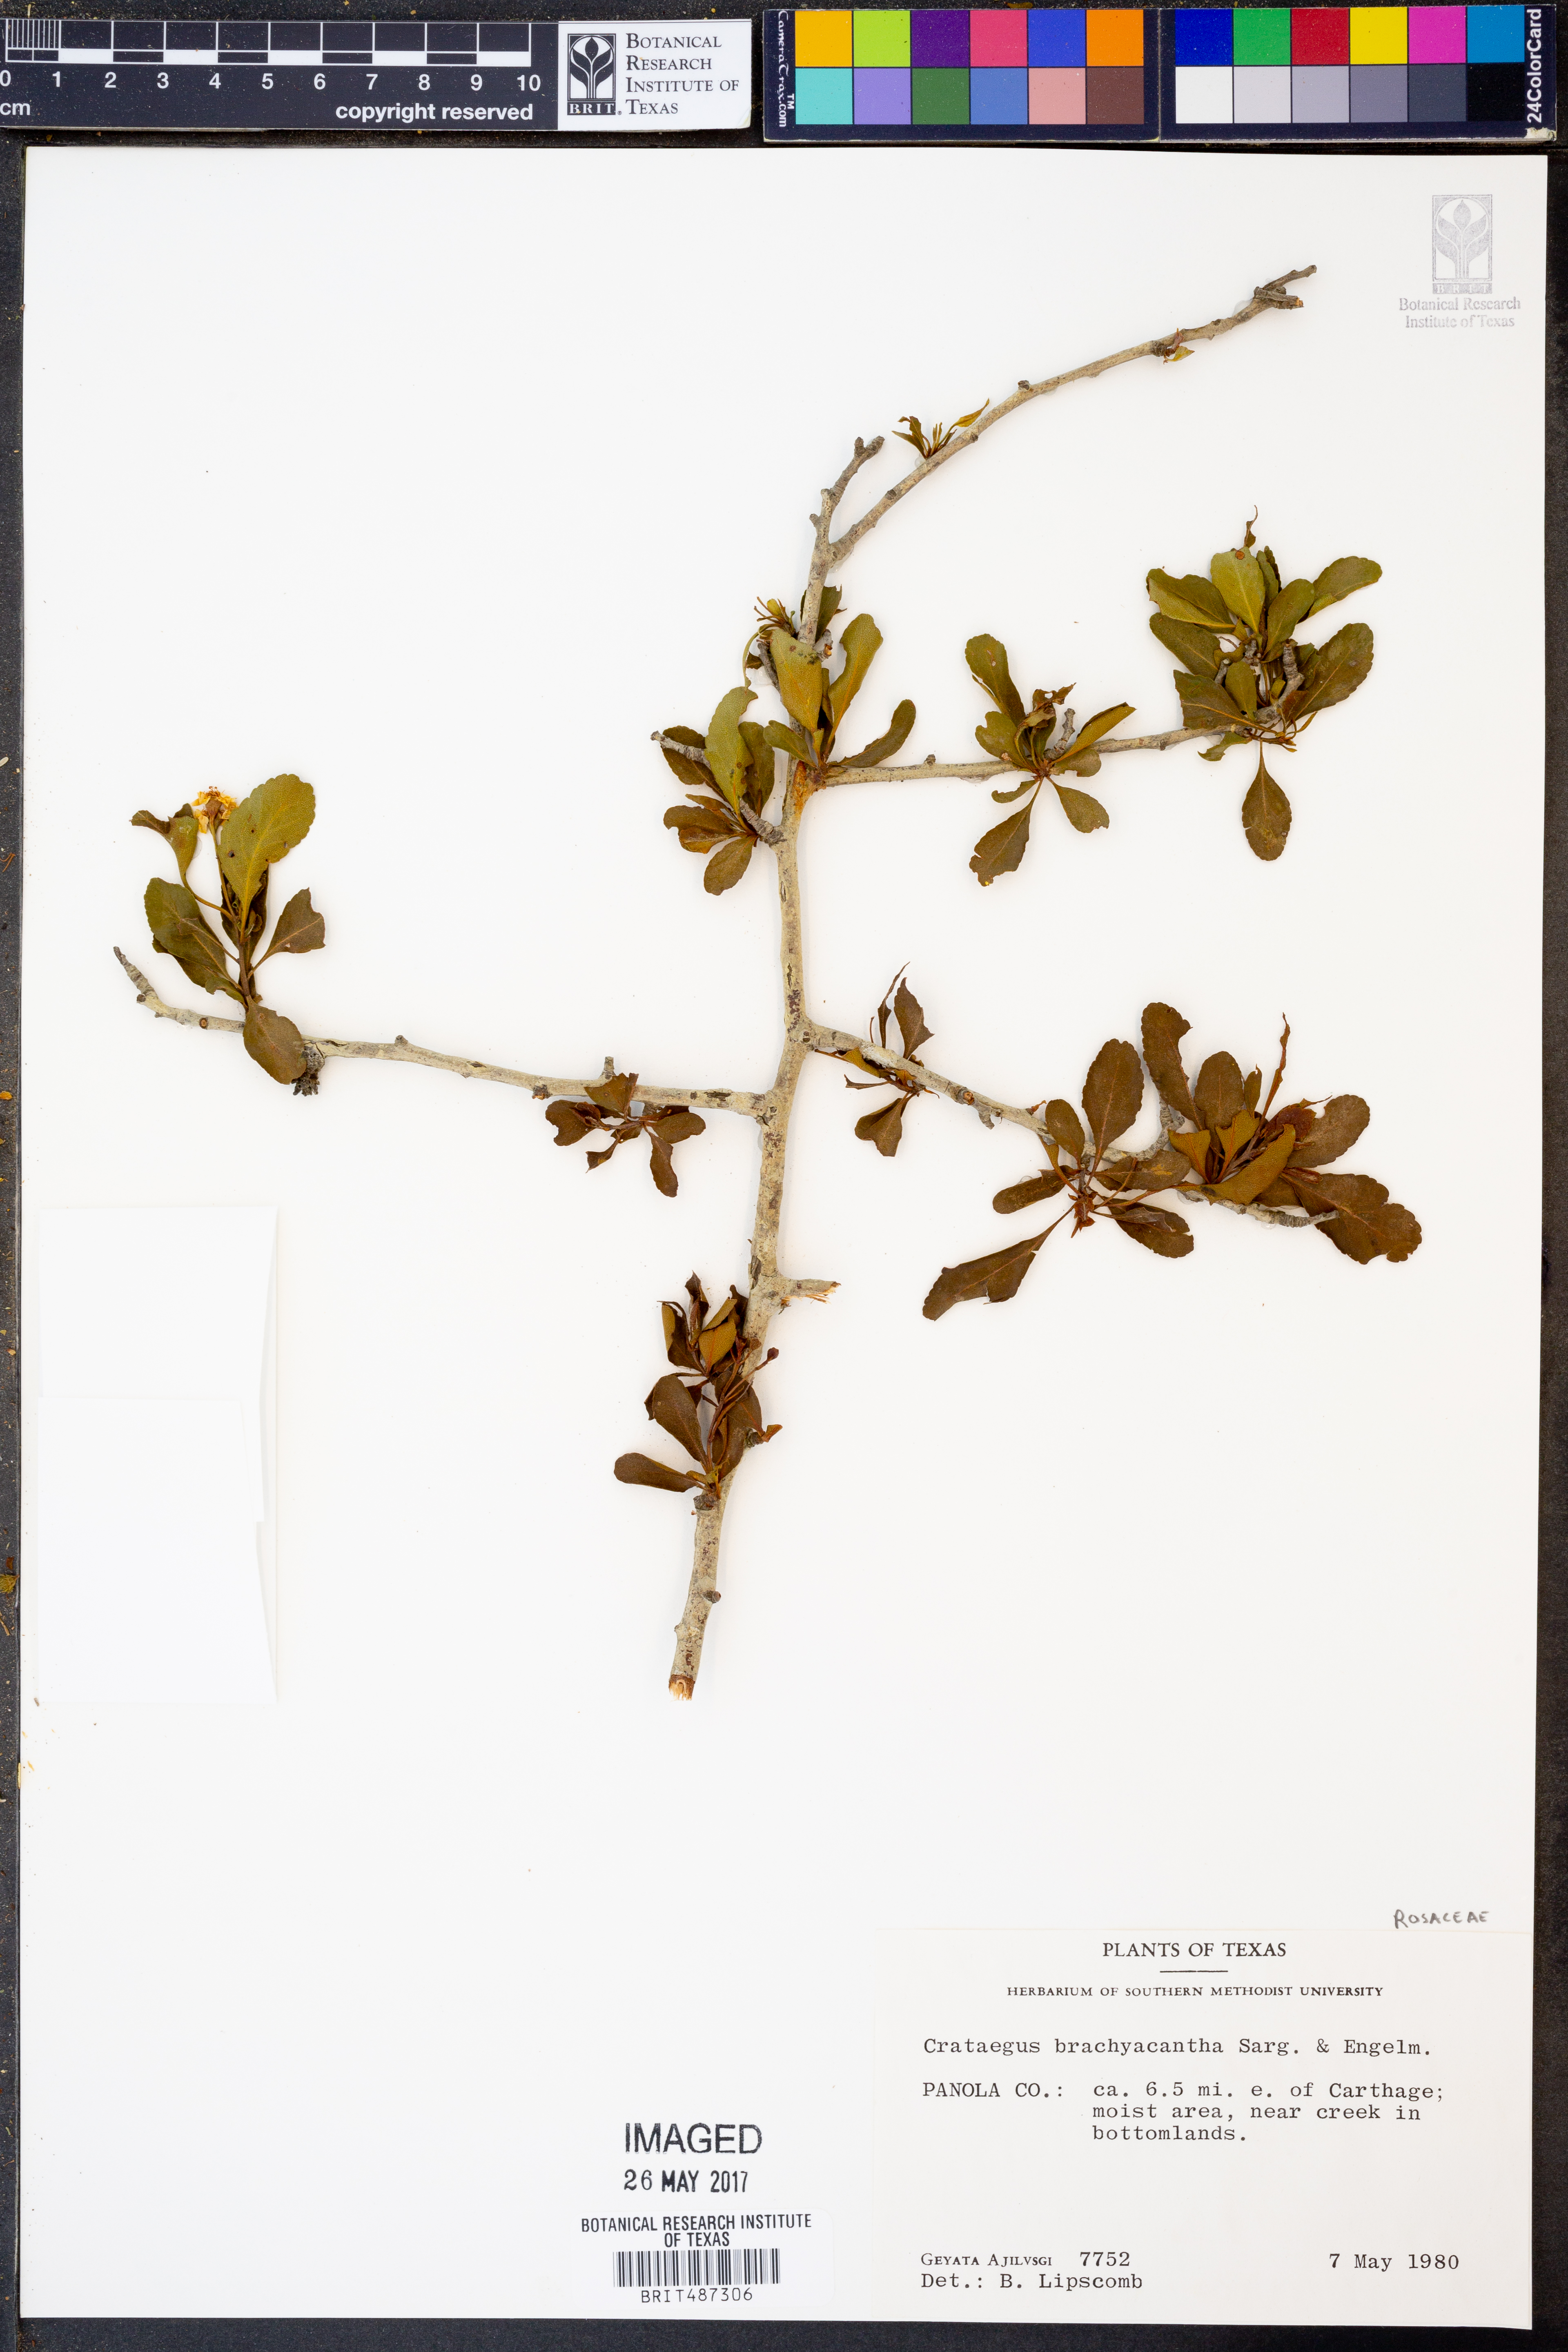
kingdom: Plantae
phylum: Tracheophyta
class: Magnoliopsida
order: Rosales
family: Rosaceae
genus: Crataegus
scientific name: Crataegus brachyacantha
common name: Blueberry-hawthorn
